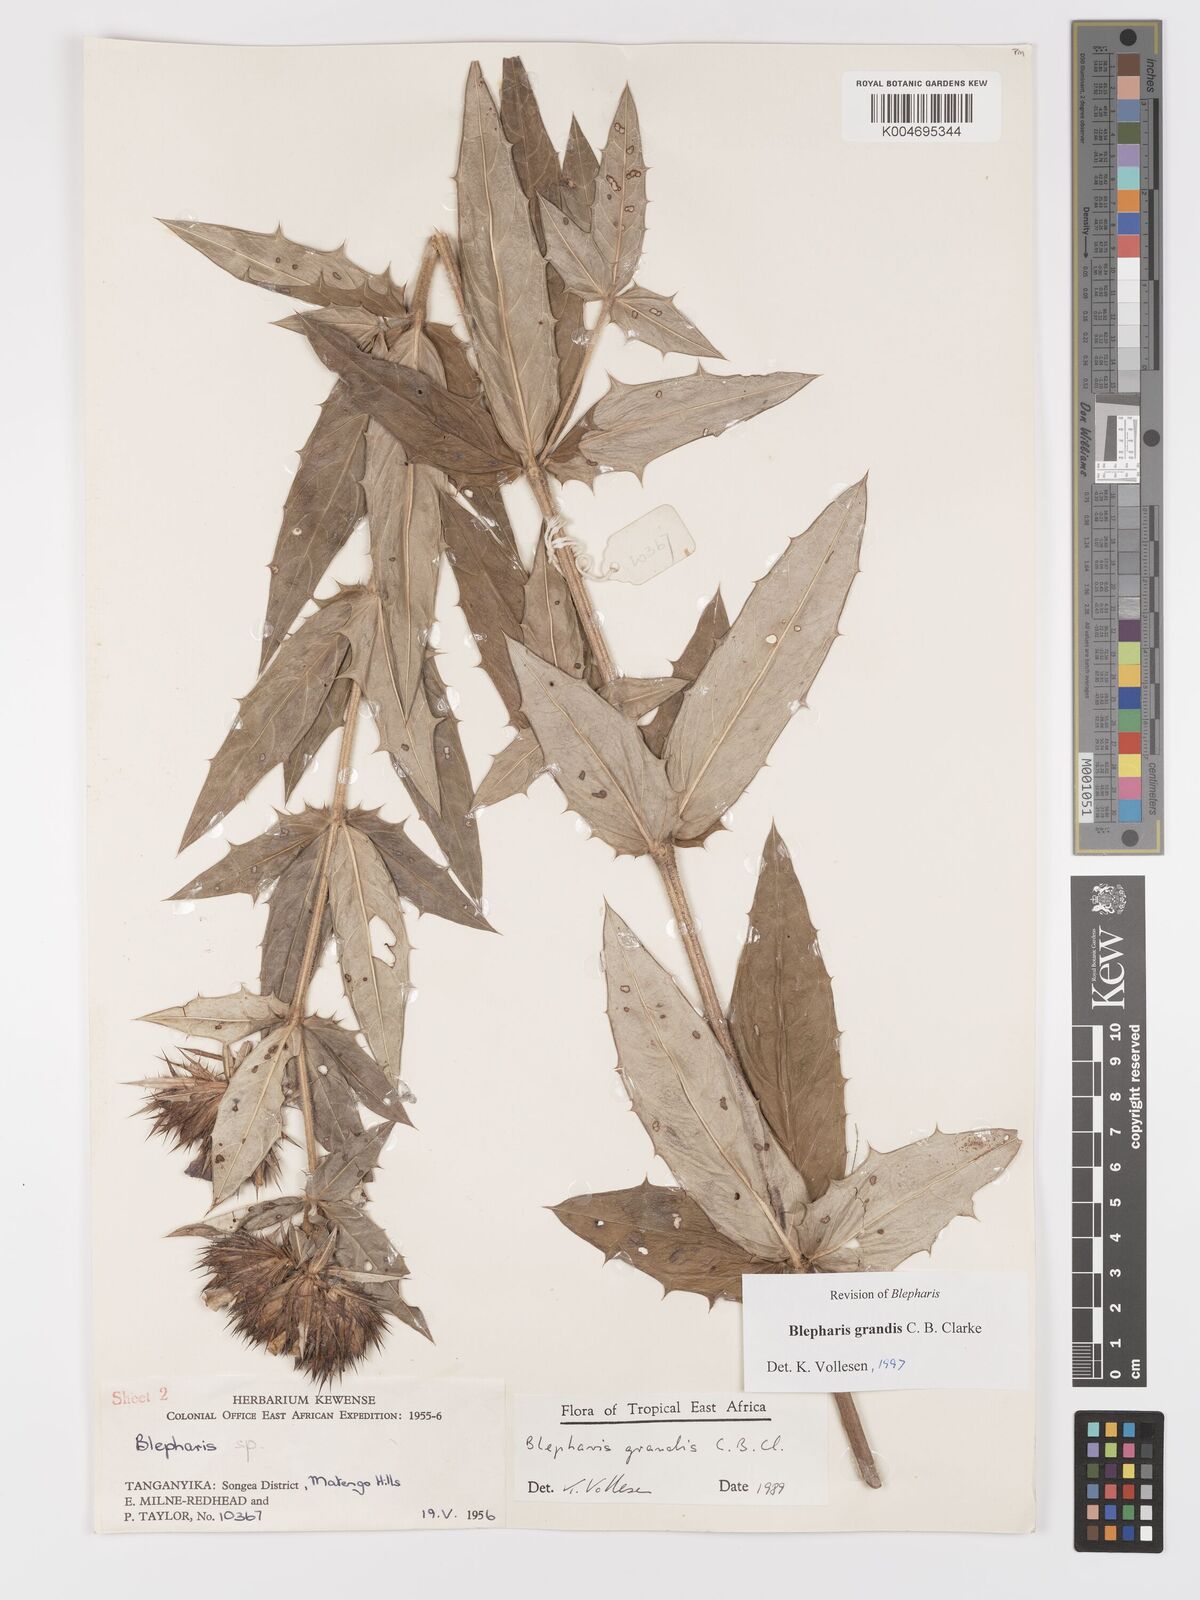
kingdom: Plantae
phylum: Tracheophyta
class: Magnoliopsida
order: Lamiales
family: Acanthaceae
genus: Blepharis
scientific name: Blepharis grandis
